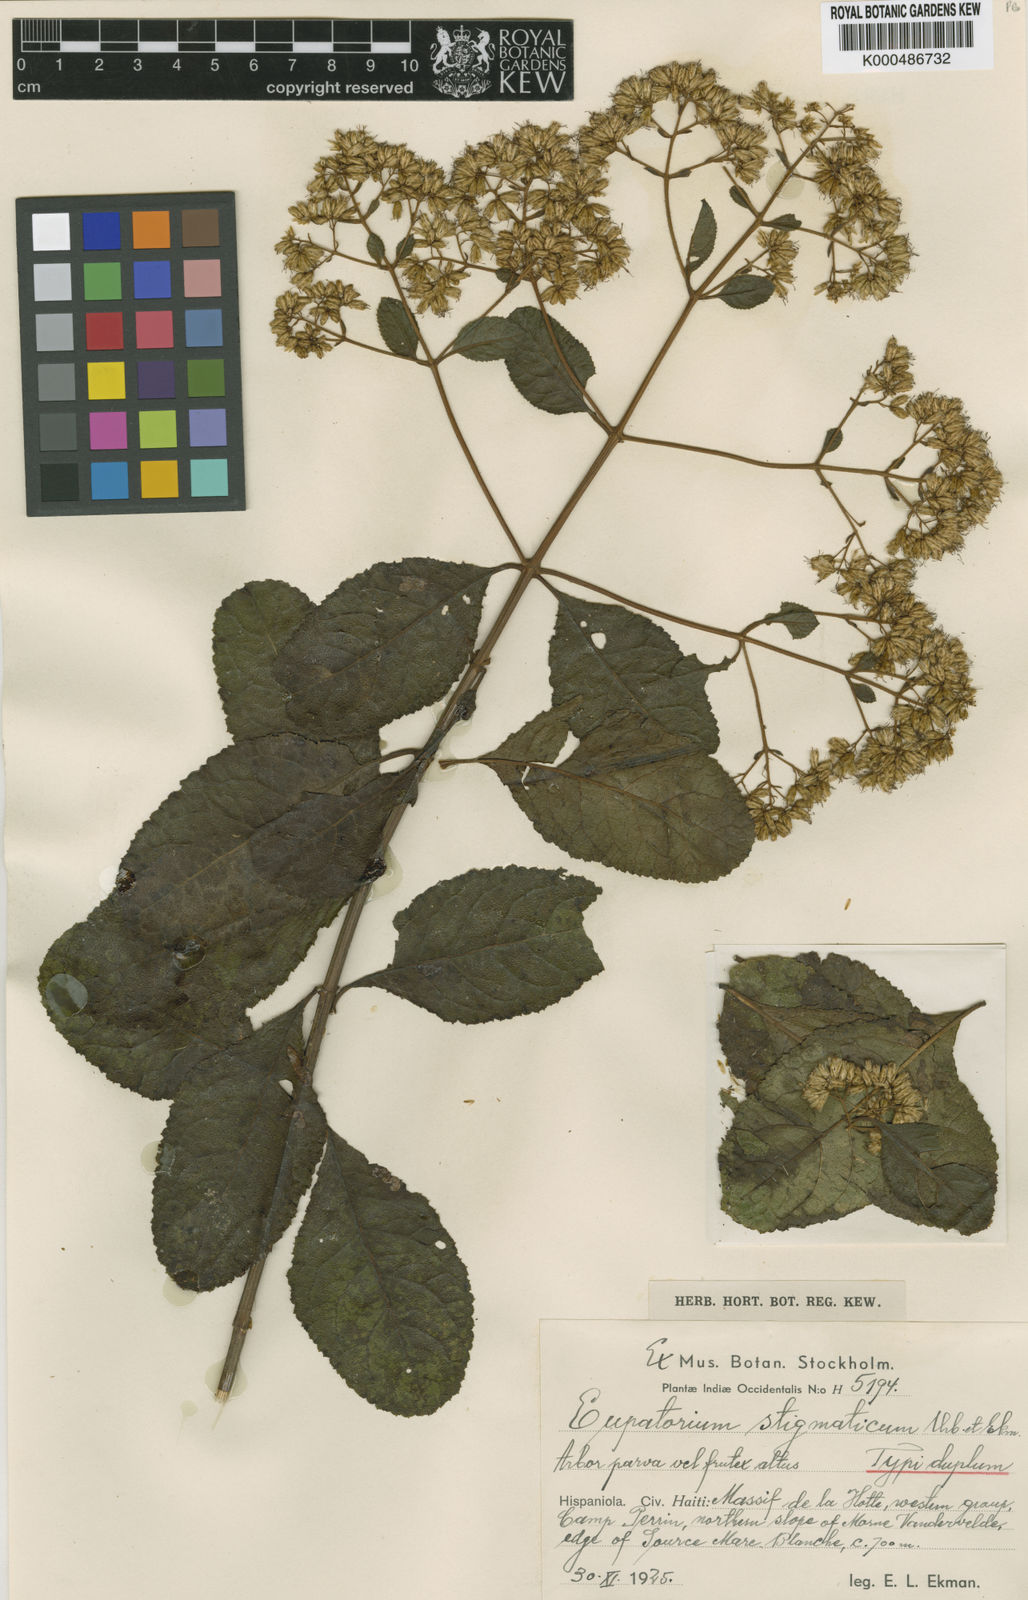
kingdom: Plantae
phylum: Tracheophyta
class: Magnoliopsida
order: Asterales
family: Asteraceae
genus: Critonia
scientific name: Critonia stigmatica
